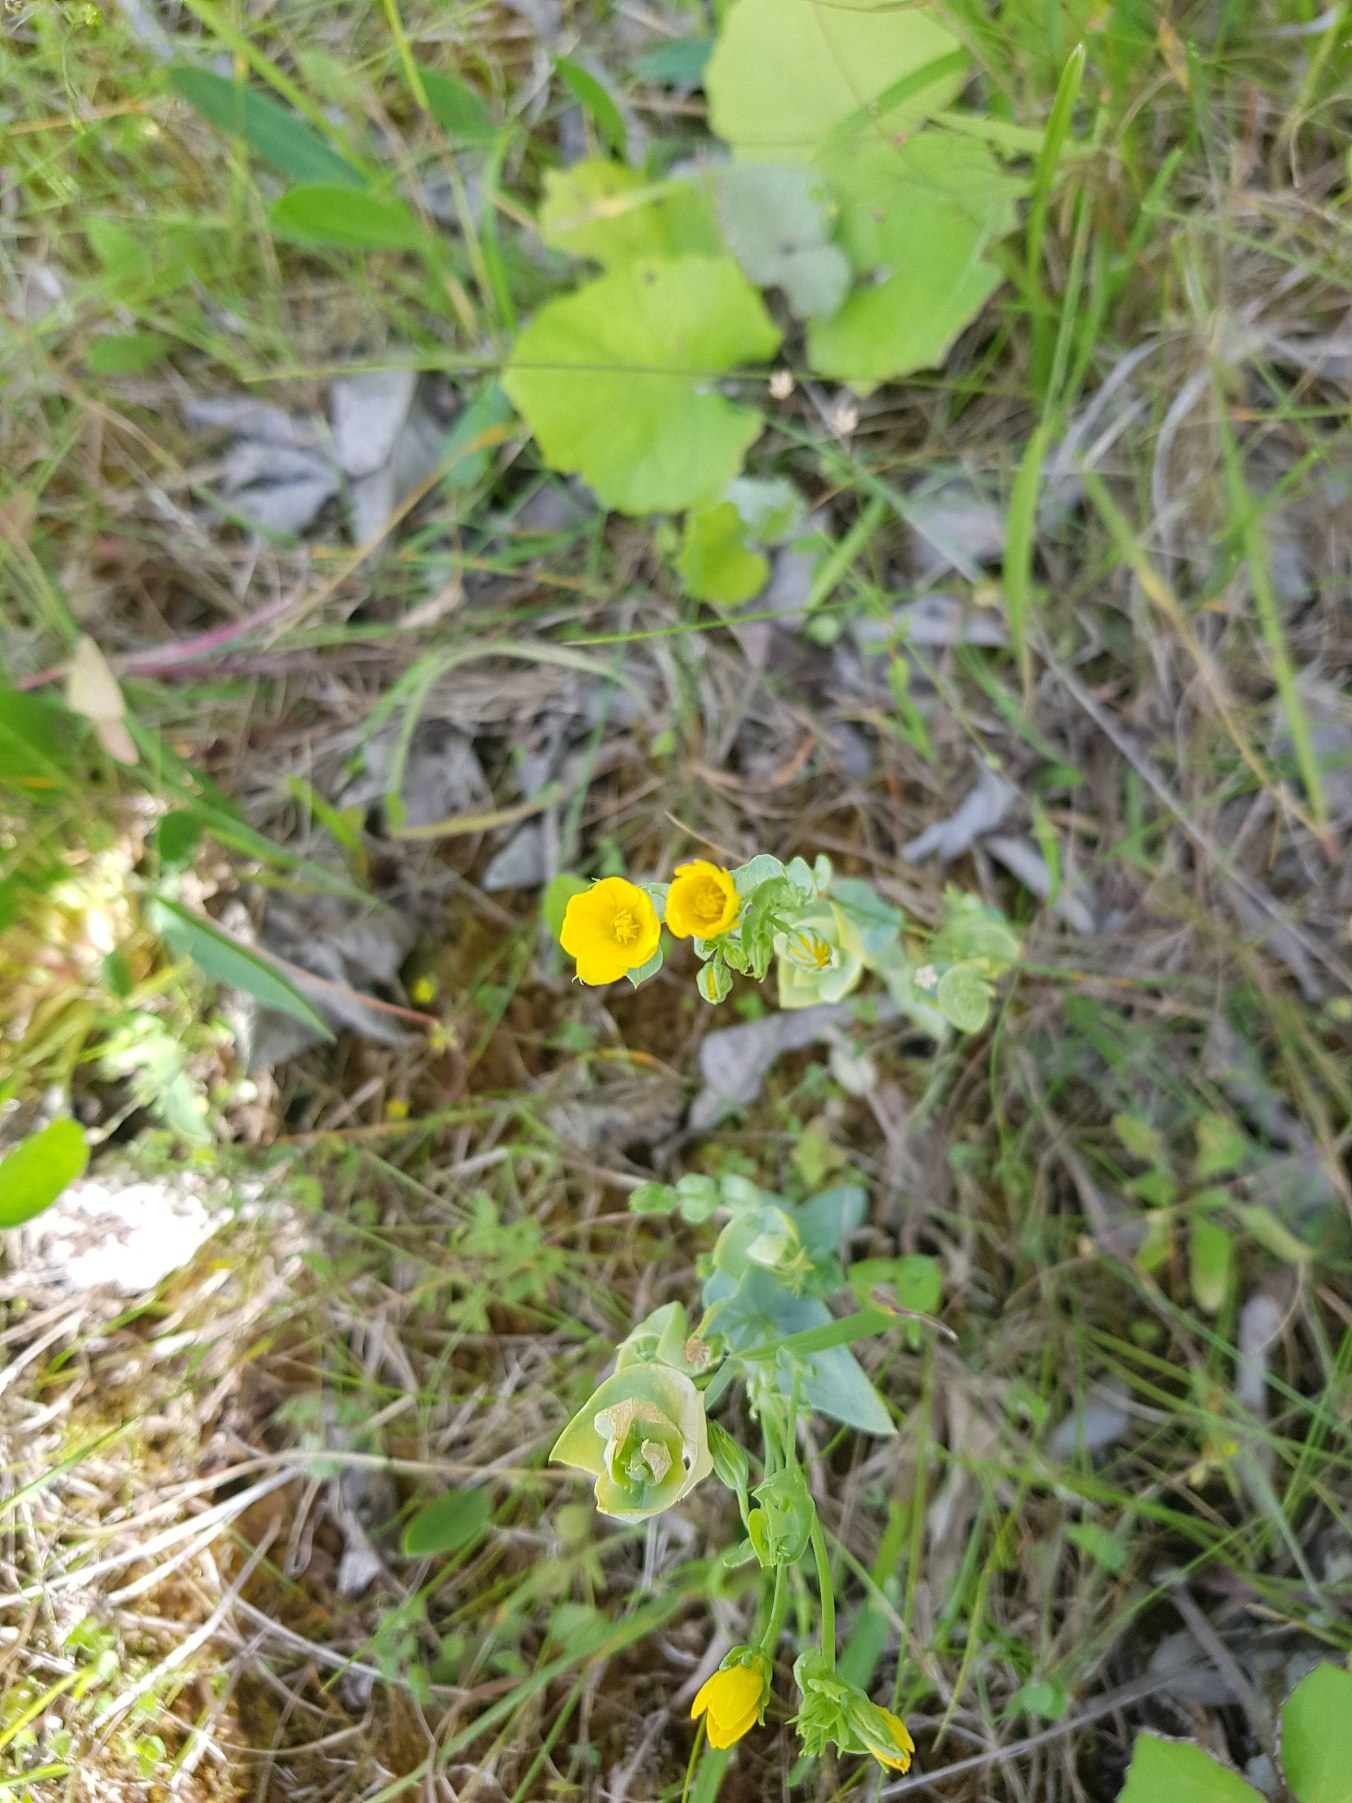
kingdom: Plantae
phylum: Tracheophyta
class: Magnoliopsida
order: Gentianales
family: Gentianaceae
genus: Blackstonia
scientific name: Blackstonia perfoliata
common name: Almindelig gyldenurt
